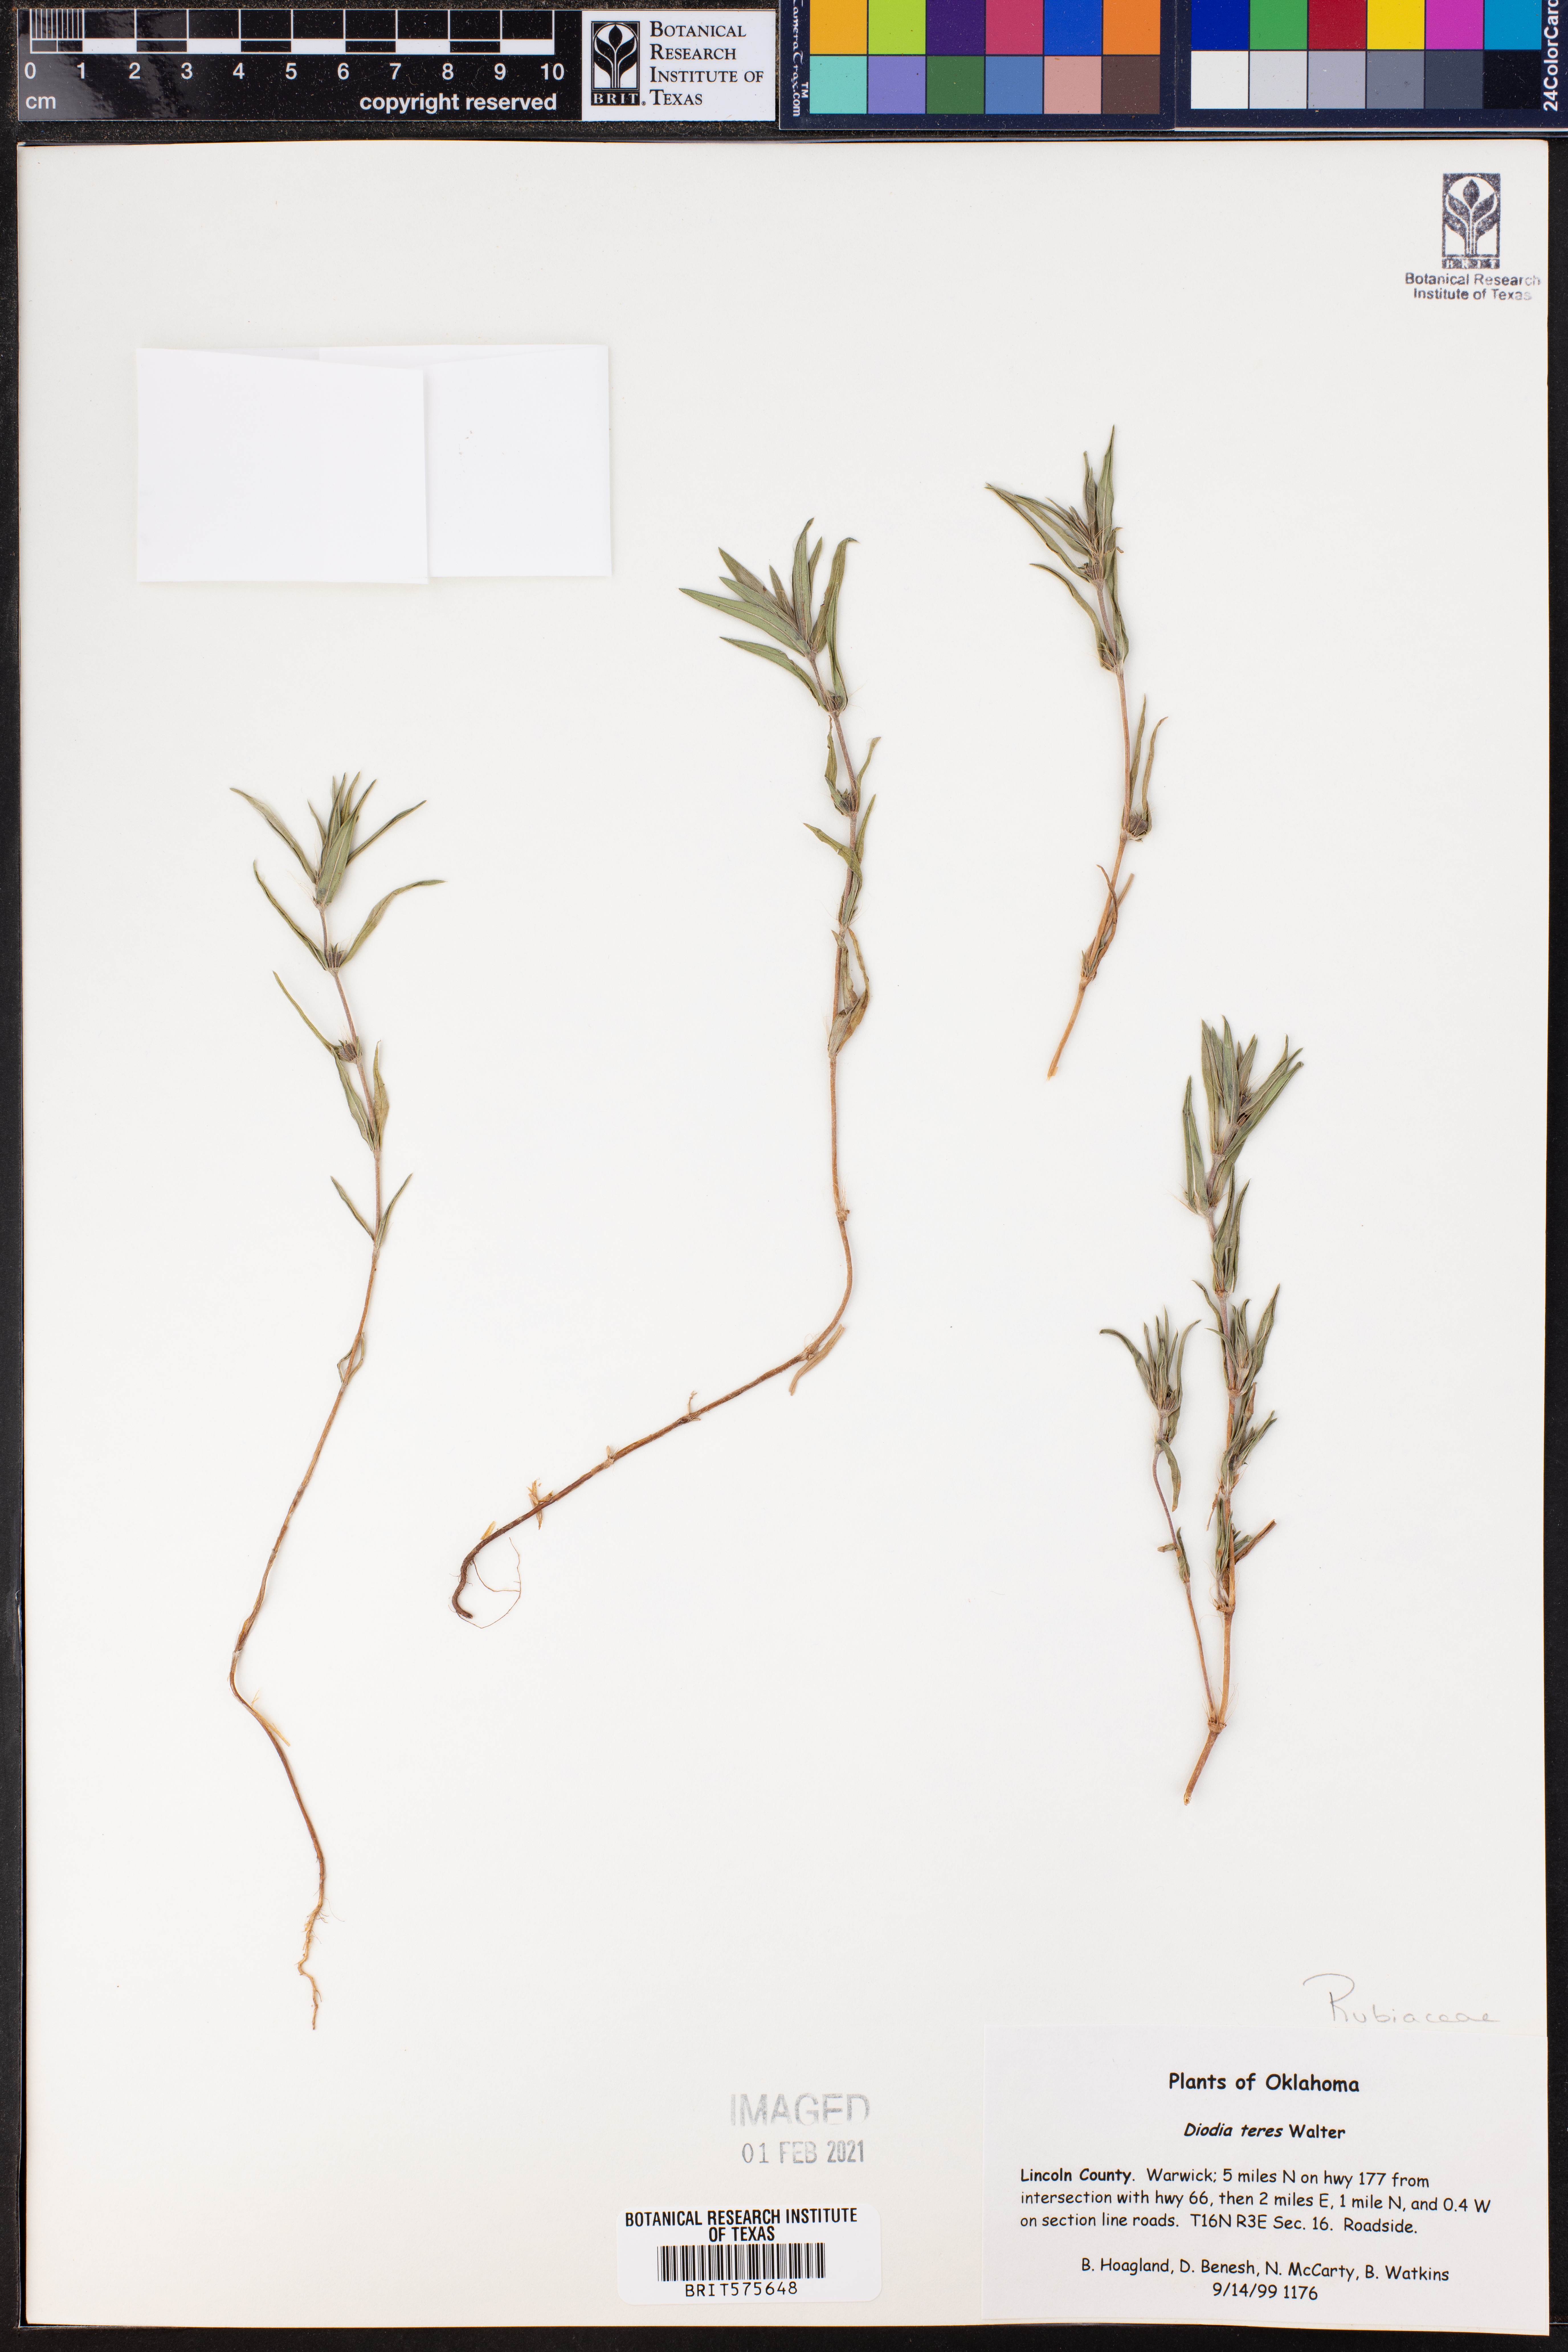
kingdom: Plantae
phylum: Tracheophyta
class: Magnoliopsida
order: Gentianales
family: Rubiaceae
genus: Hexasepalum
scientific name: Hexasepalum teres
